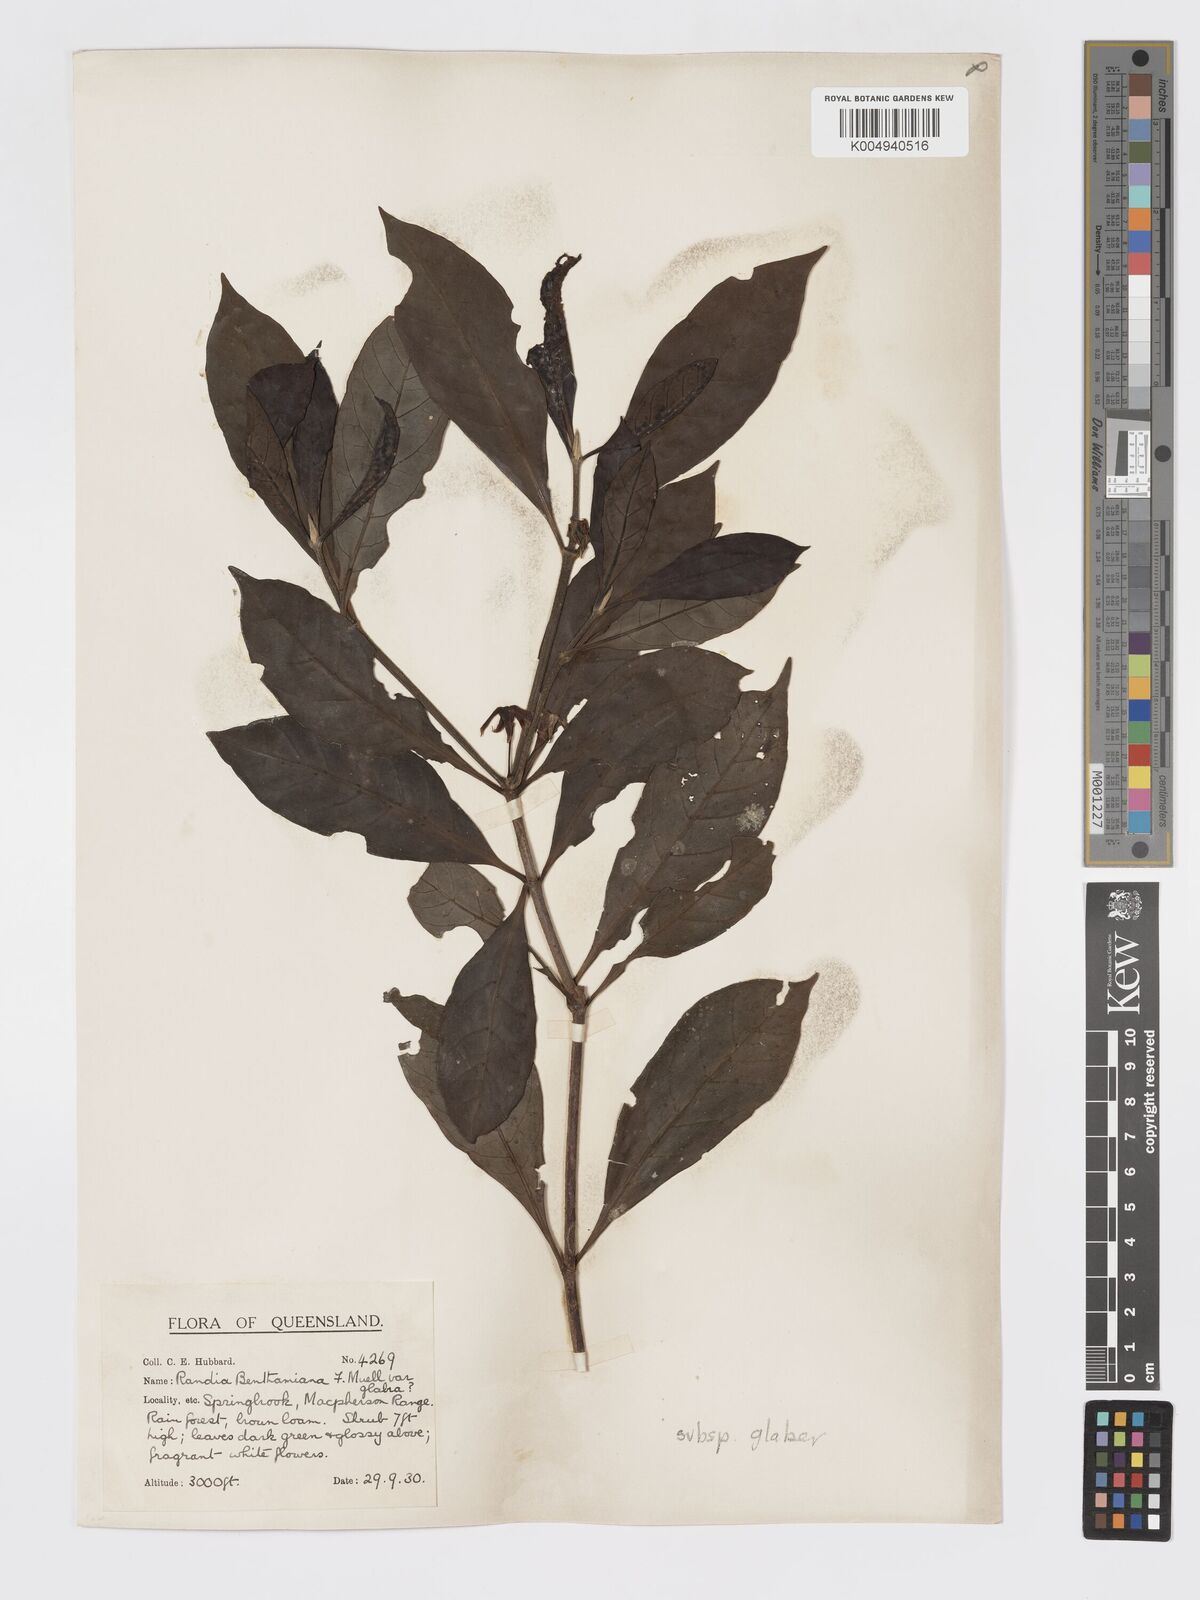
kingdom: Plantae
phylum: Tracheophyta
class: Magnoliopsida
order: Gentianales
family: Rubiaceae
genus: Atractocarpus
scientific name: Atractocarpus benthamianus
